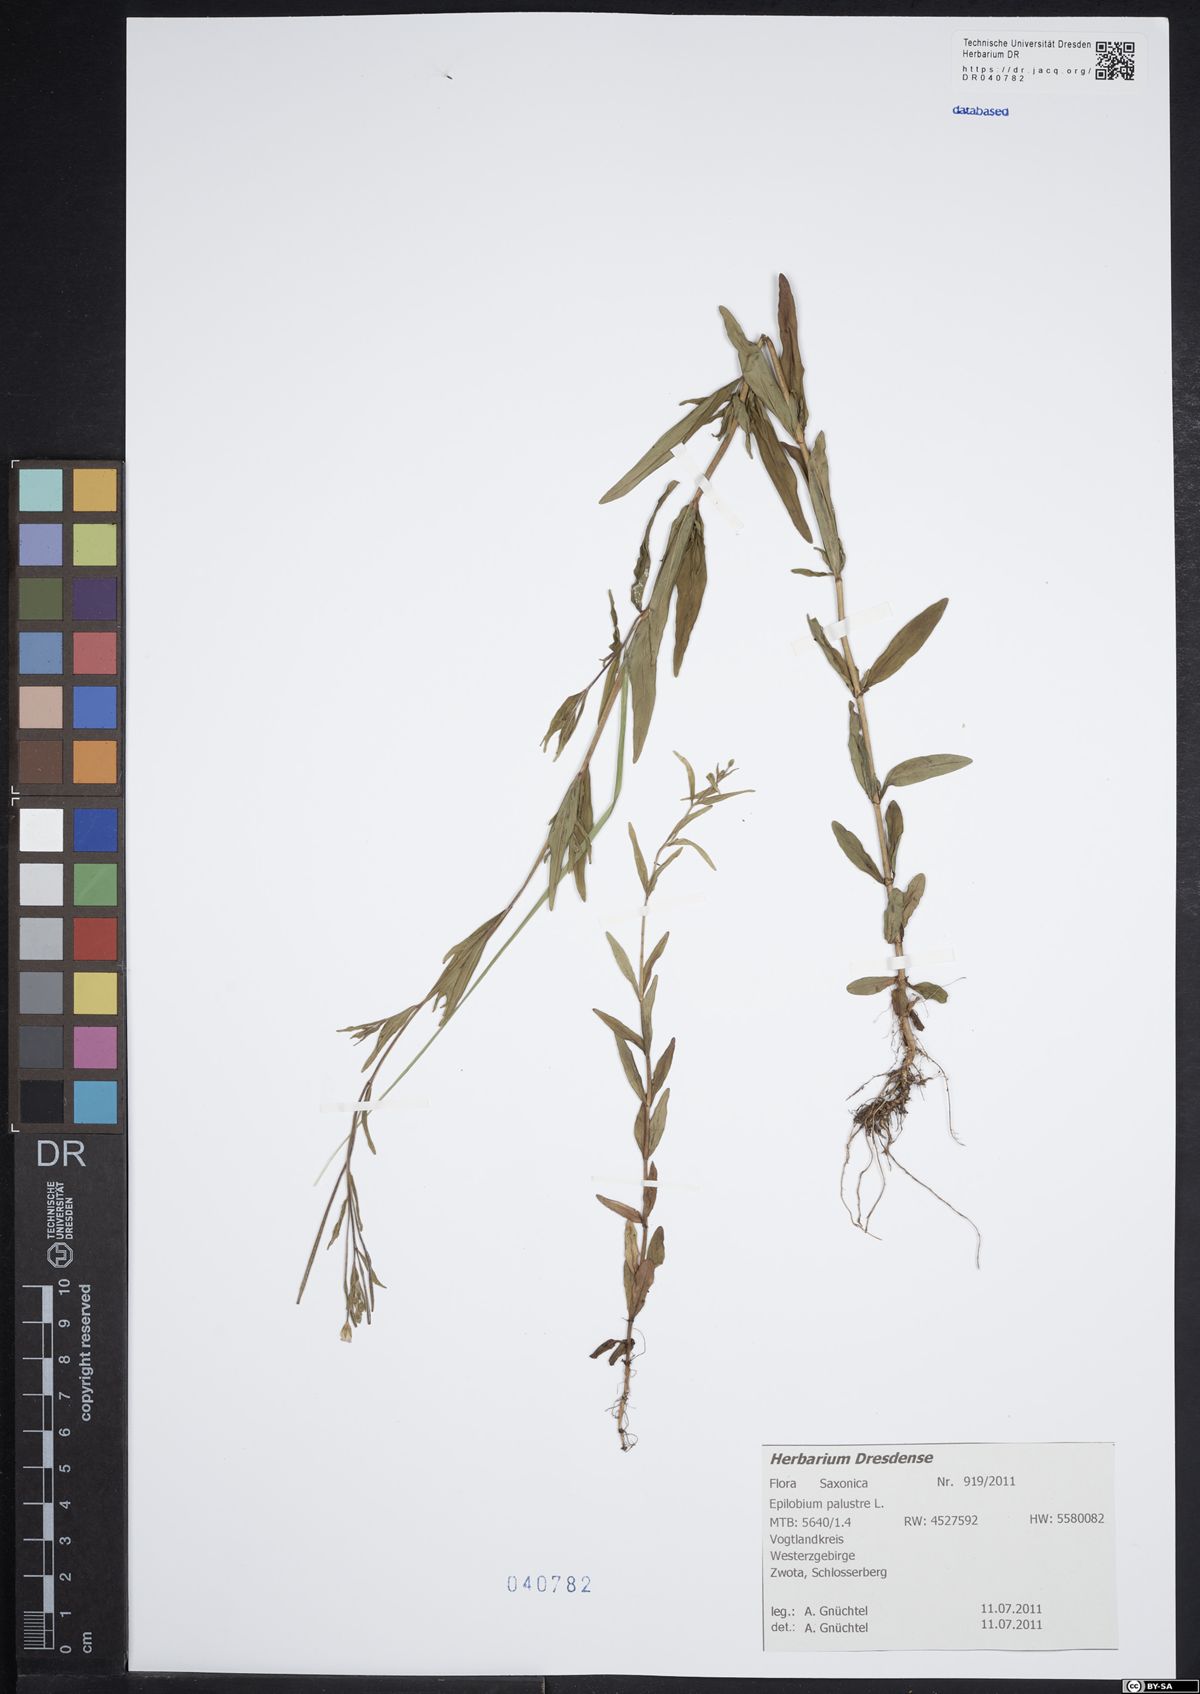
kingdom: Plantae
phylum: Tracheophyta
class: Magnoliopsida
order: Myrtales
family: Onagraceae
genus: Epilobium
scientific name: Epilobium palustre
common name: Marsh willowherb
